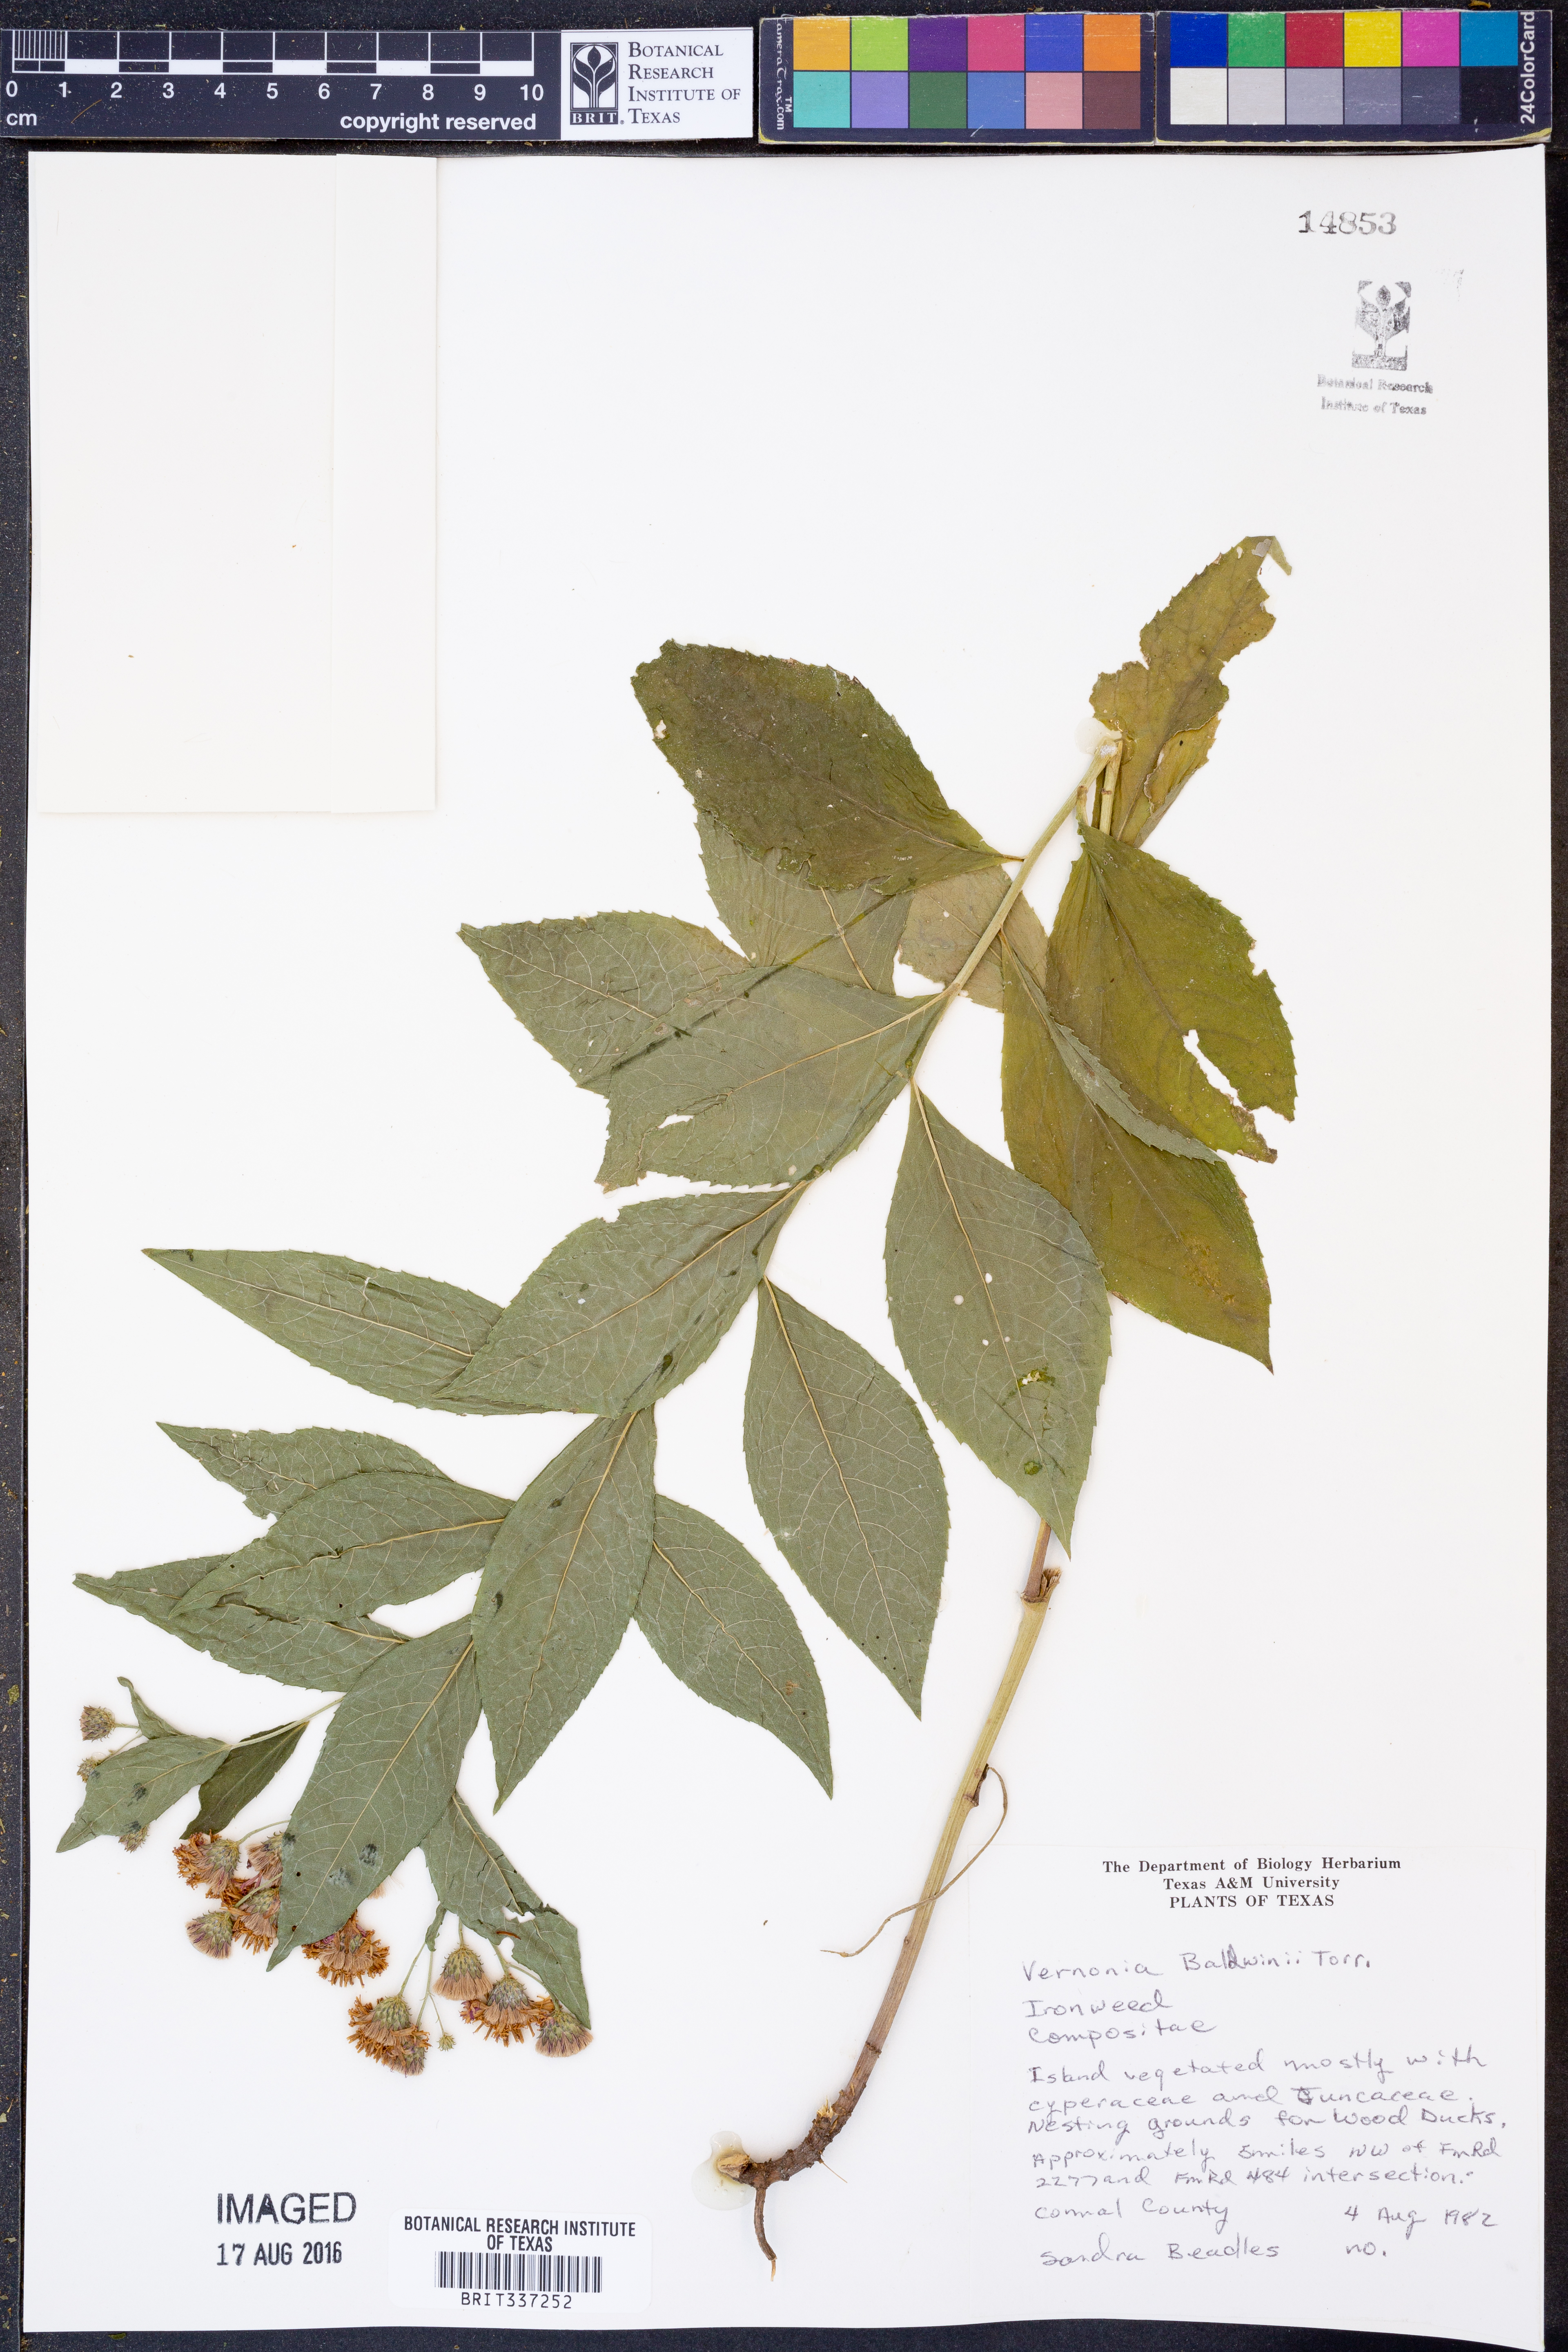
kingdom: Plantae
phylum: Tracheophyta
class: Magnoliopsida
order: Asterales
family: Asteraceae
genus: Vernonia
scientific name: Vernonia baldwinii
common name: Western ironweed
